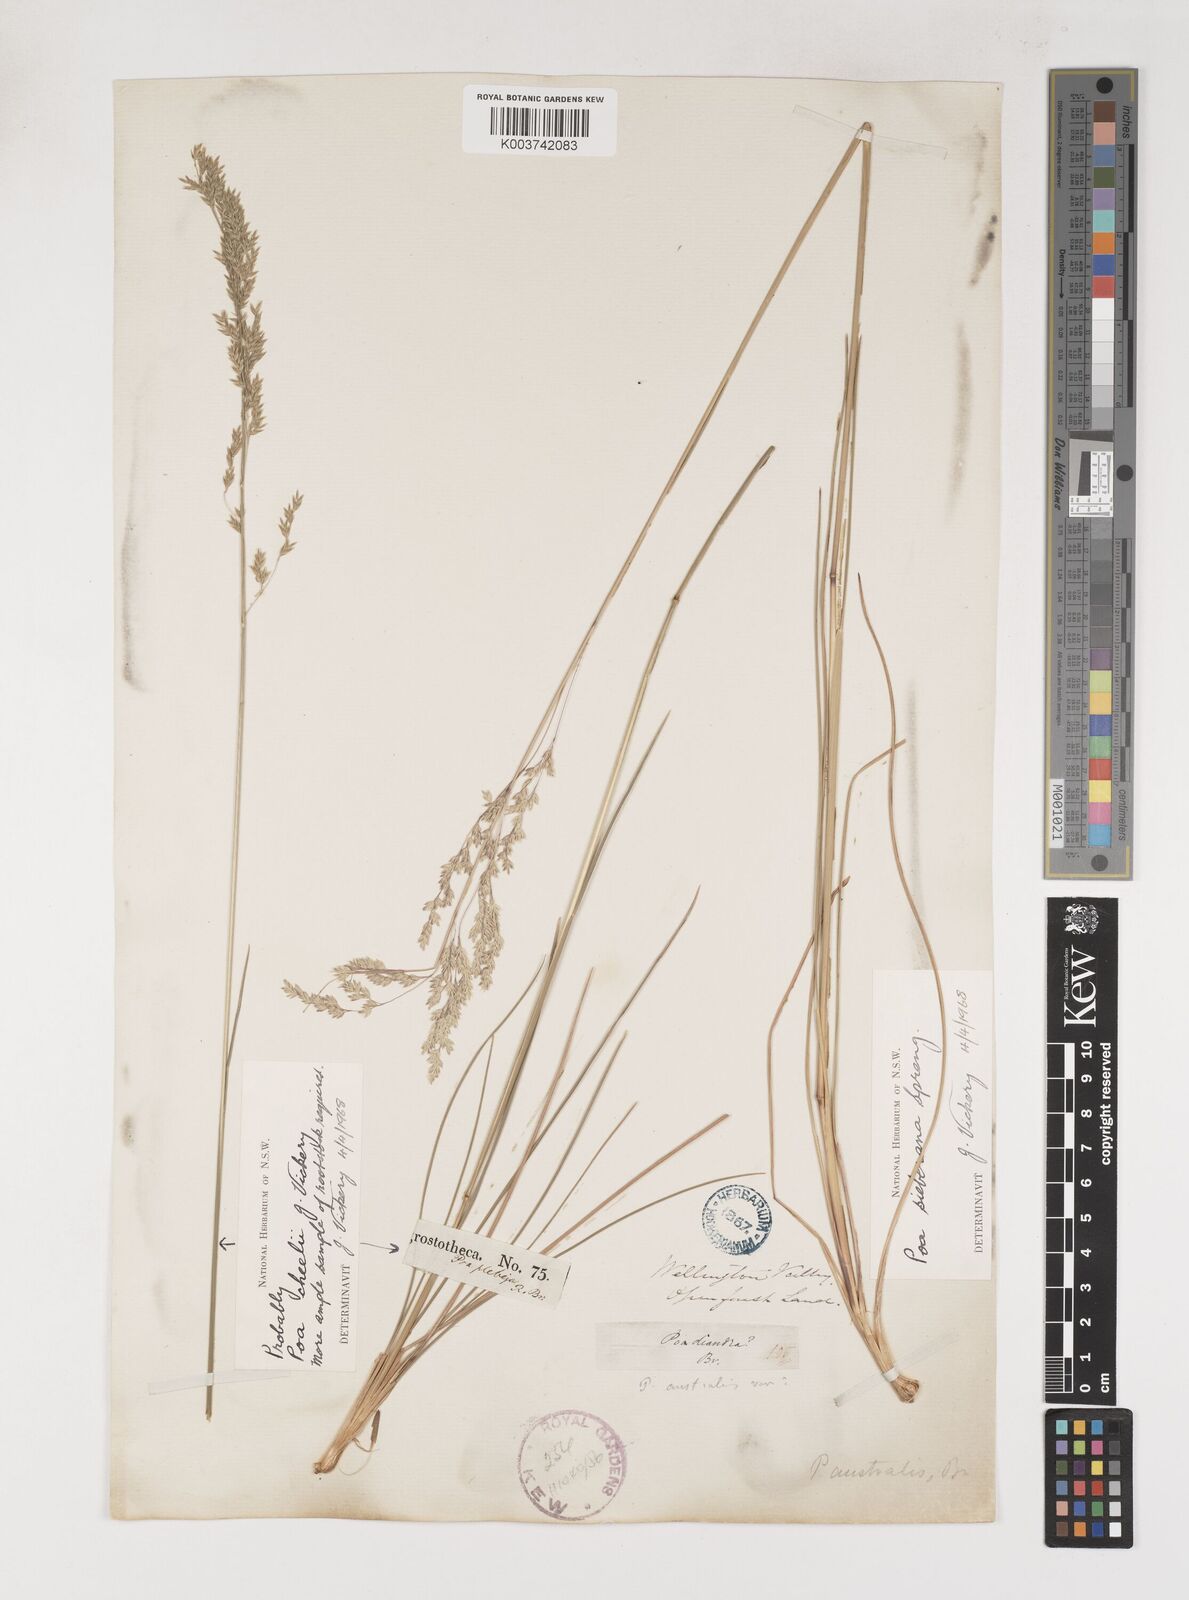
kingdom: Plantae
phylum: Tracheophyta
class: Liliopsida
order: Poales
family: Poaceae
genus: Poa
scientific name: Poa cheelii
